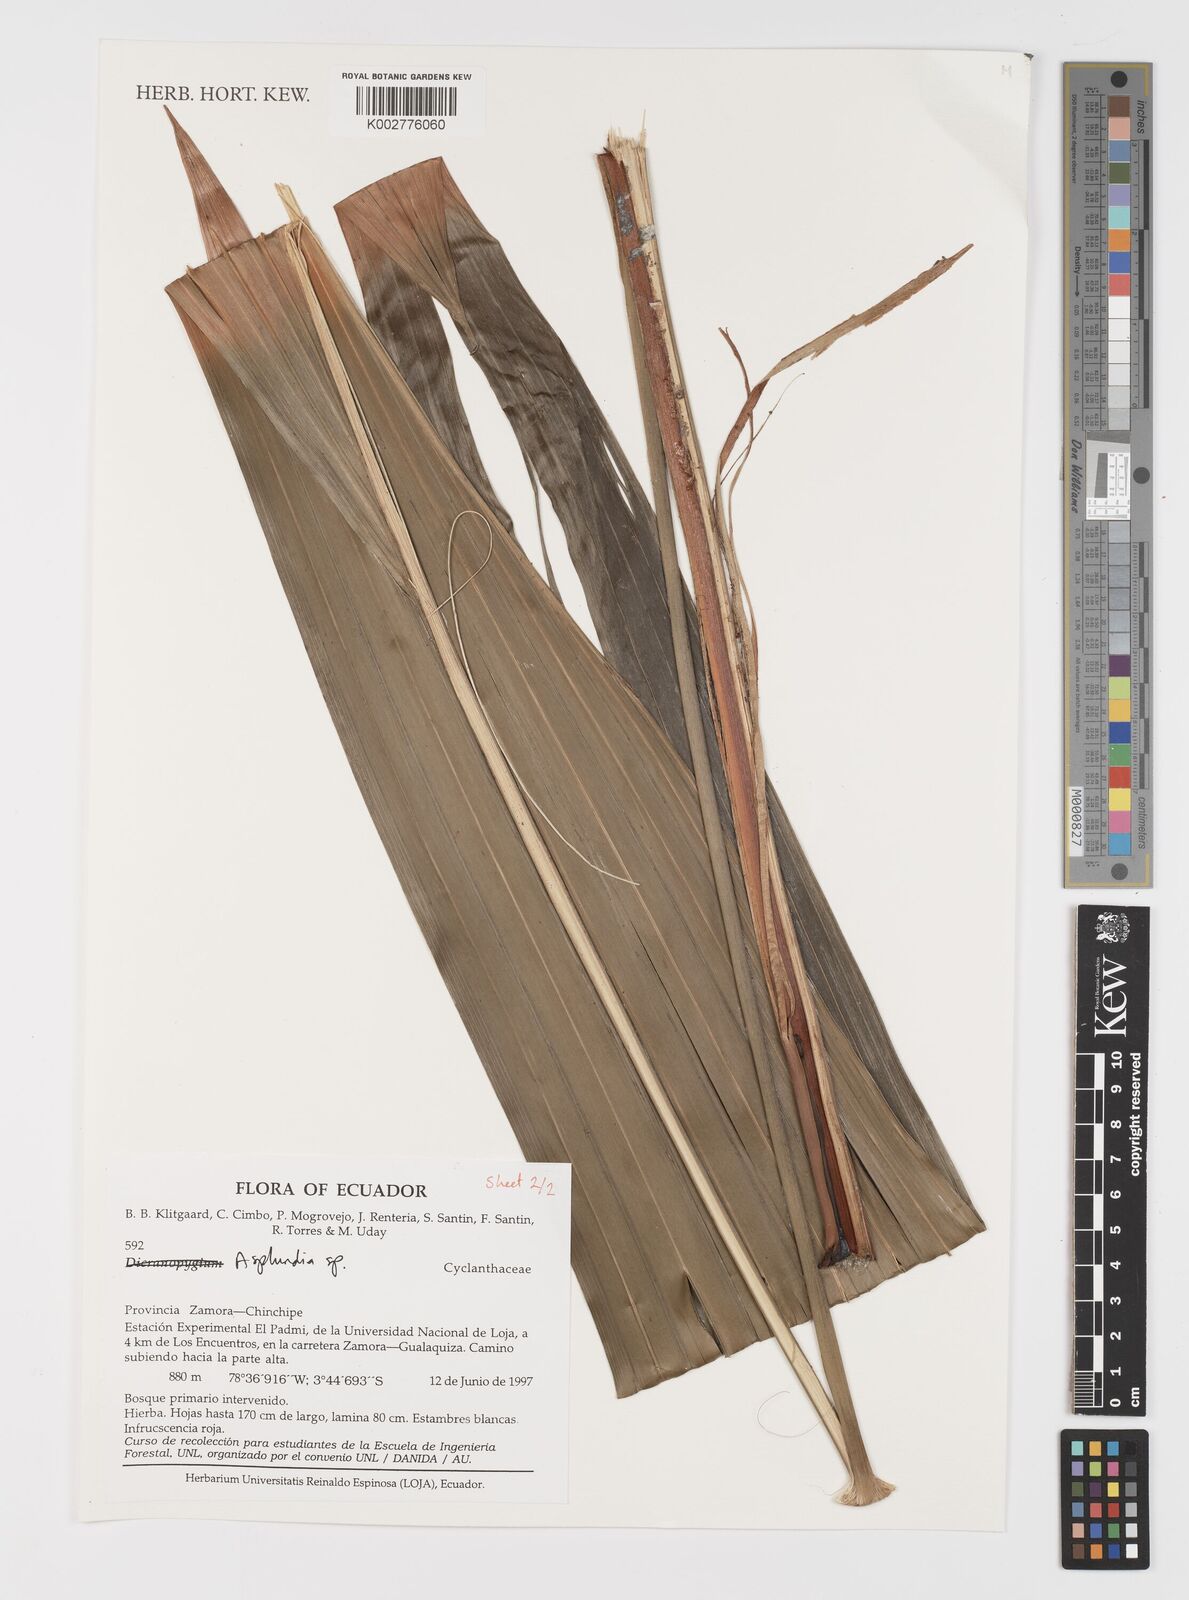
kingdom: Plantae
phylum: Tracheophyta
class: Liliopsida
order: Pandanales
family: Cyclanthaceae
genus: Asplundia
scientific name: Asplundia
